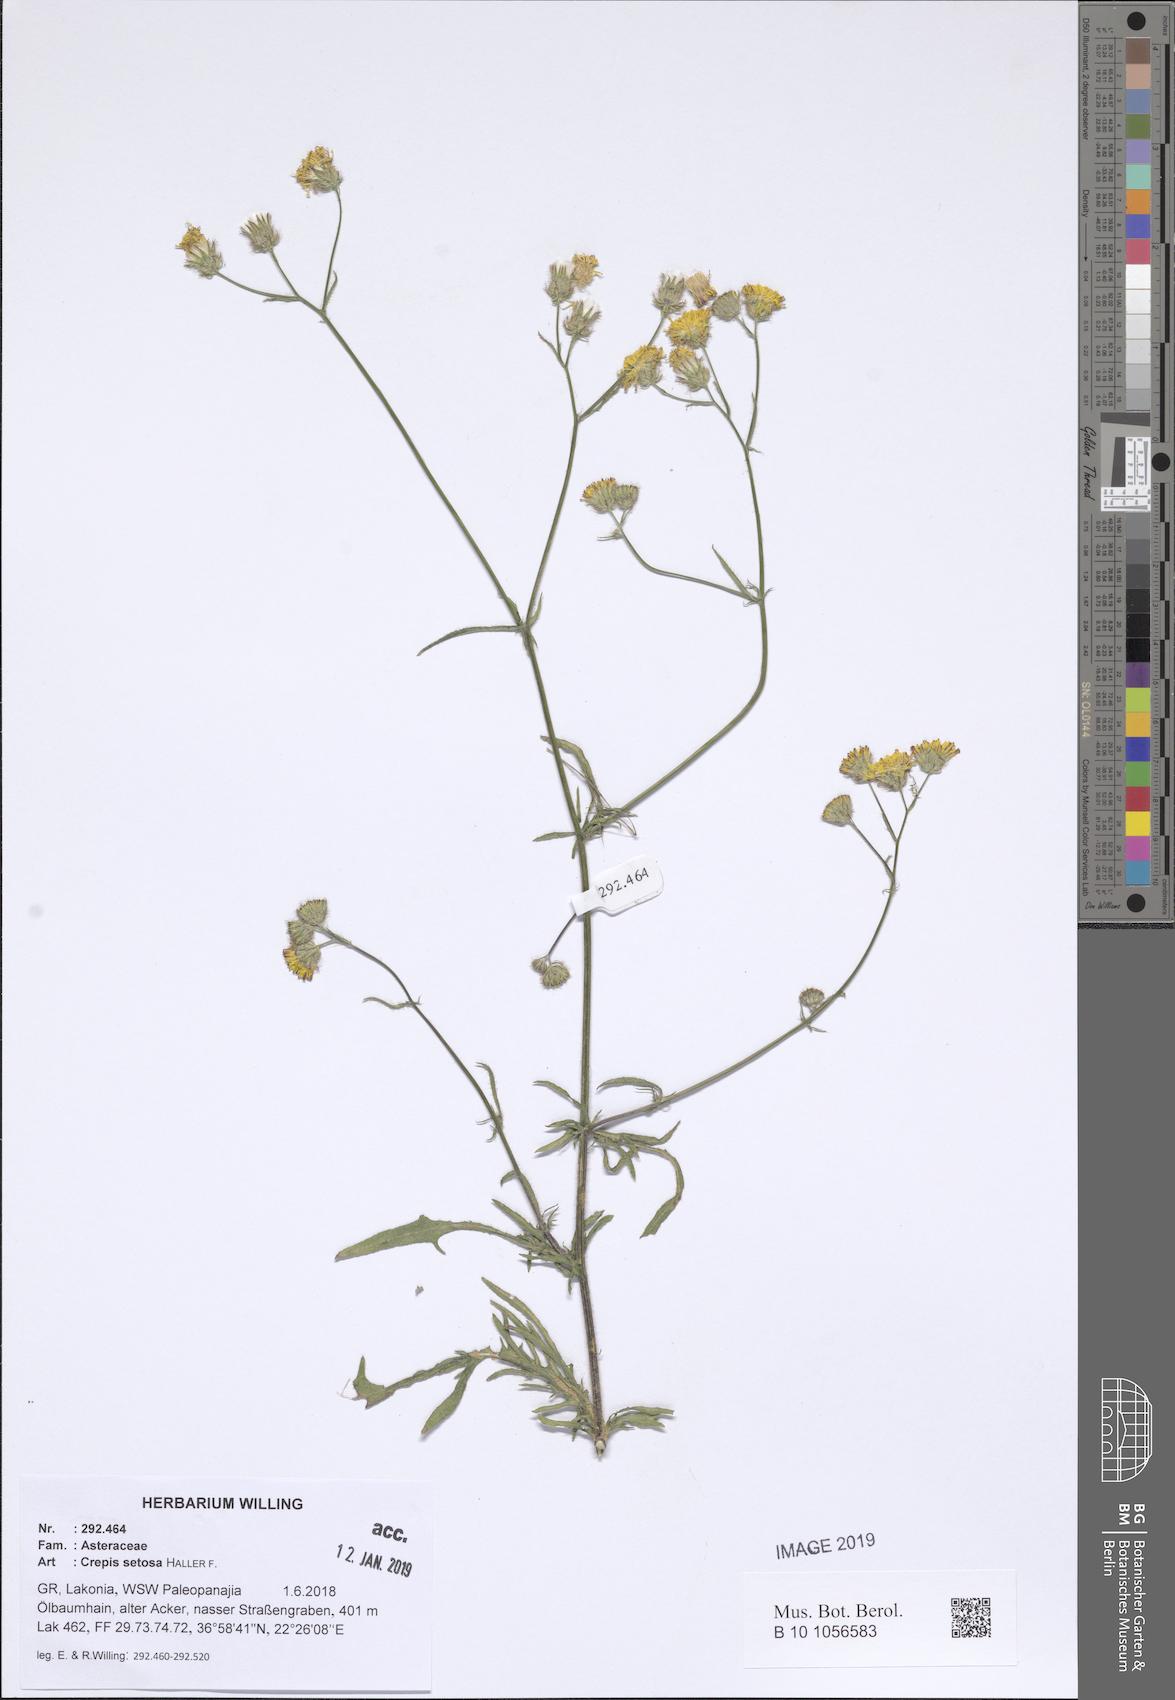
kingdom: Plantae
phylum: Tracheophyta
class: Magnoliopsida
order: Asterales
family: Asteraceae
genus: Crepis
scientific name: Crepis setosa
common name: Bristly hawk's-beard
